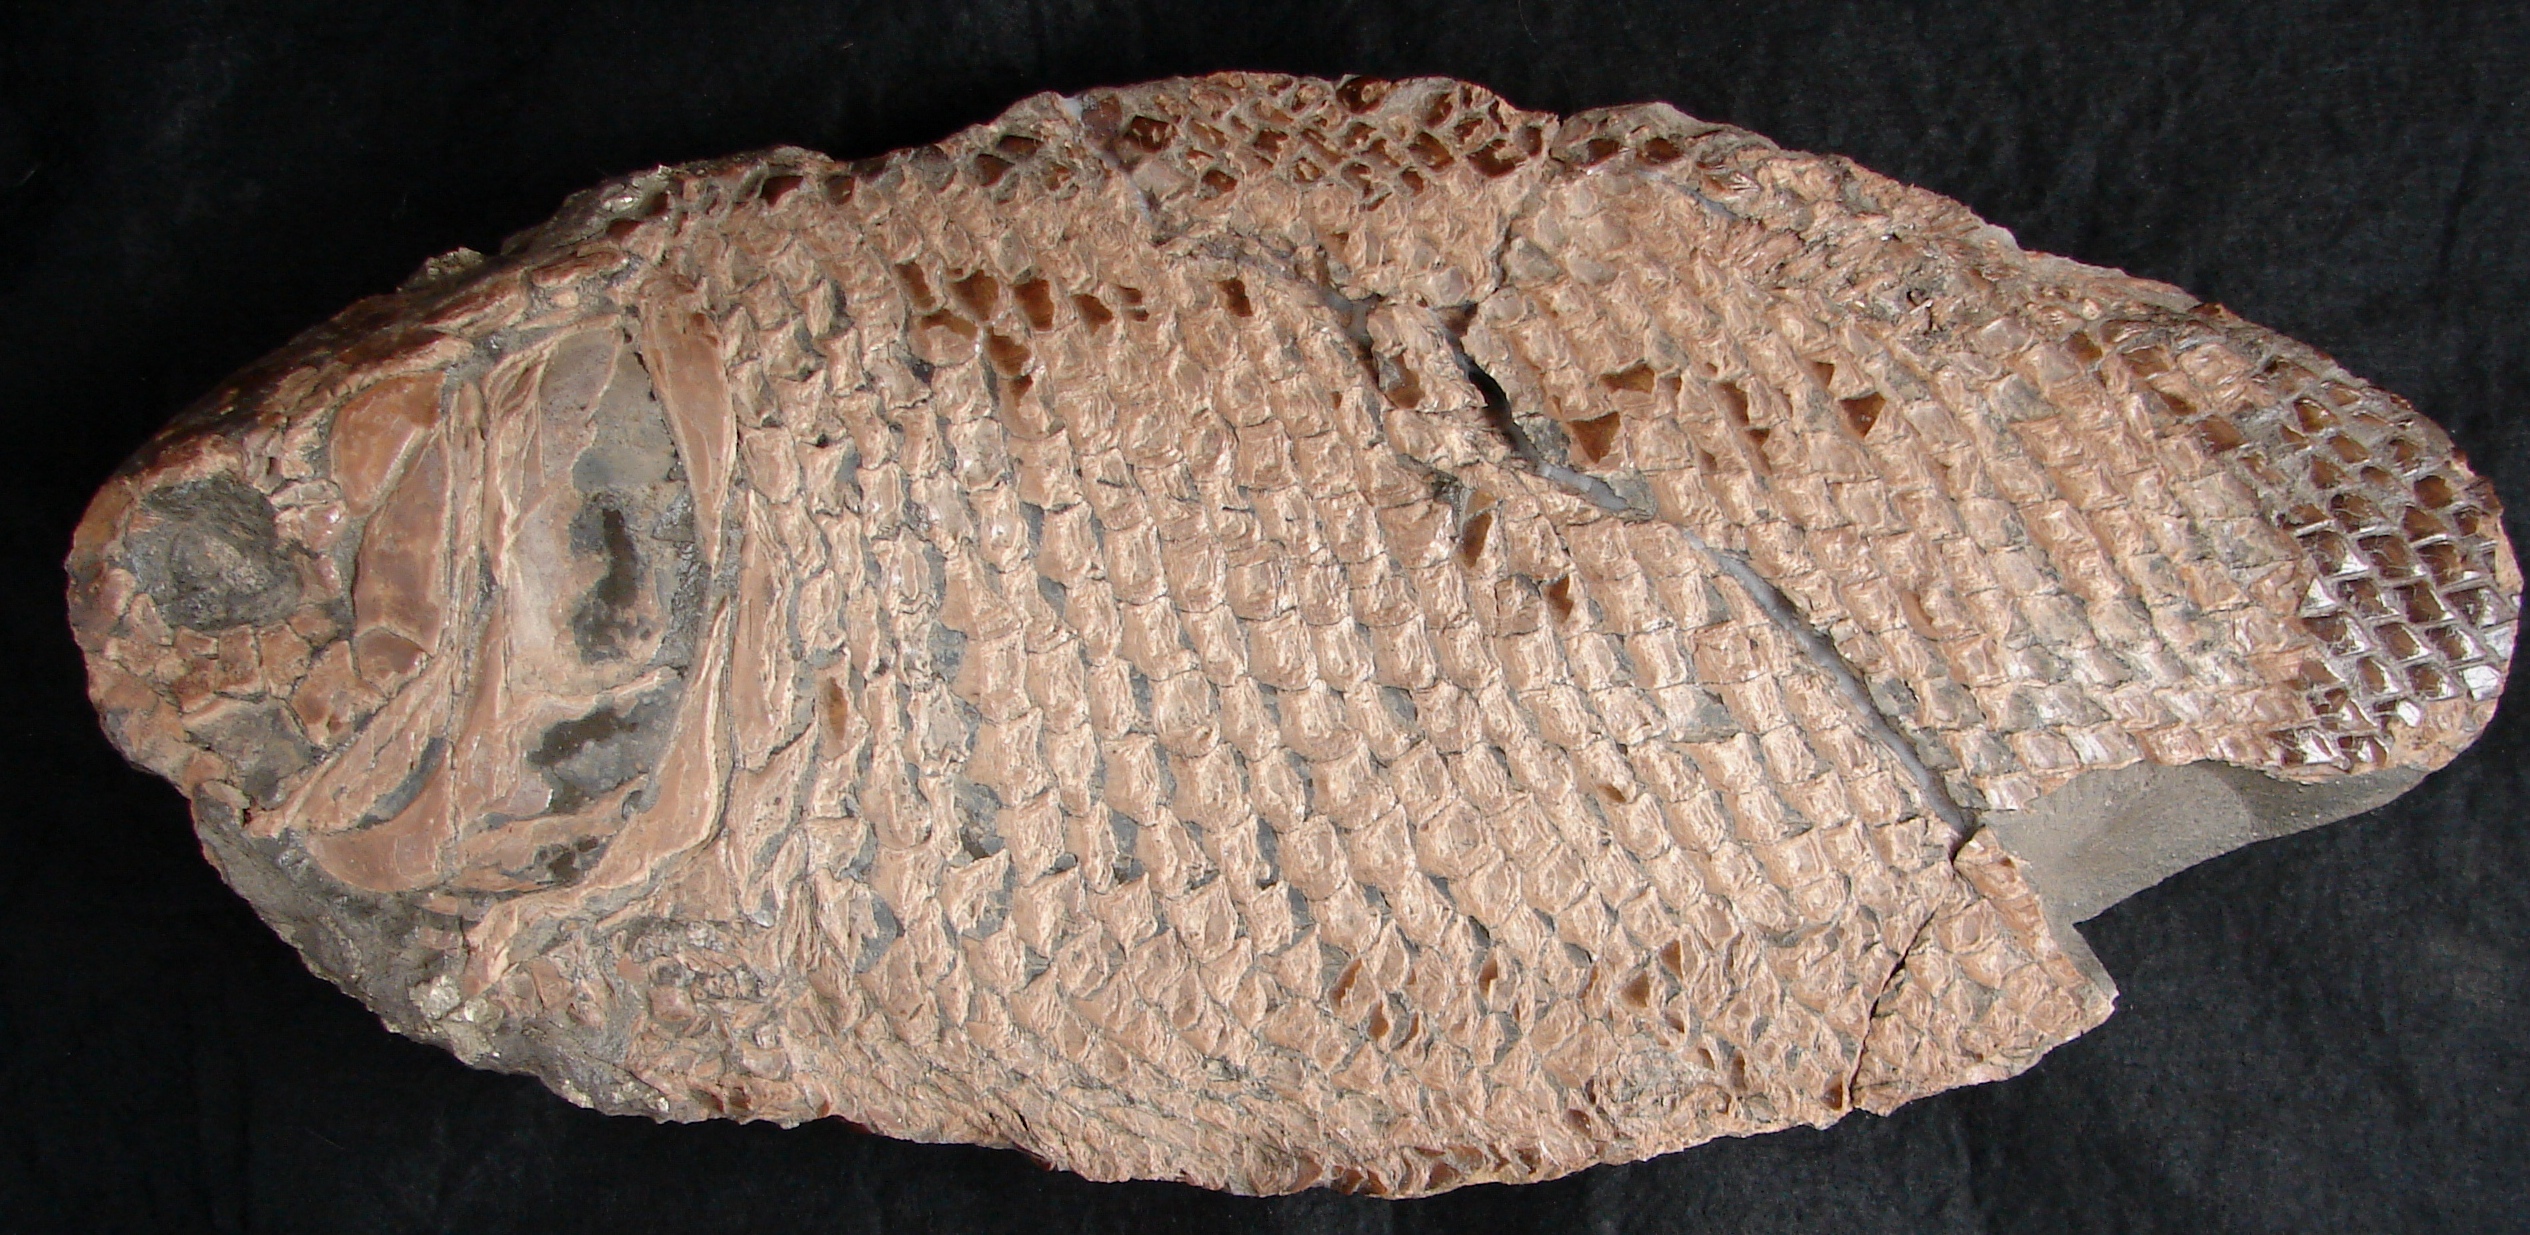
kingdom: Animalia
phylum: Chordata
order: Lepisosteiformes
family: Lepidotidae
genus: Lepidotes
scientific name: Lepidotes elvensis
